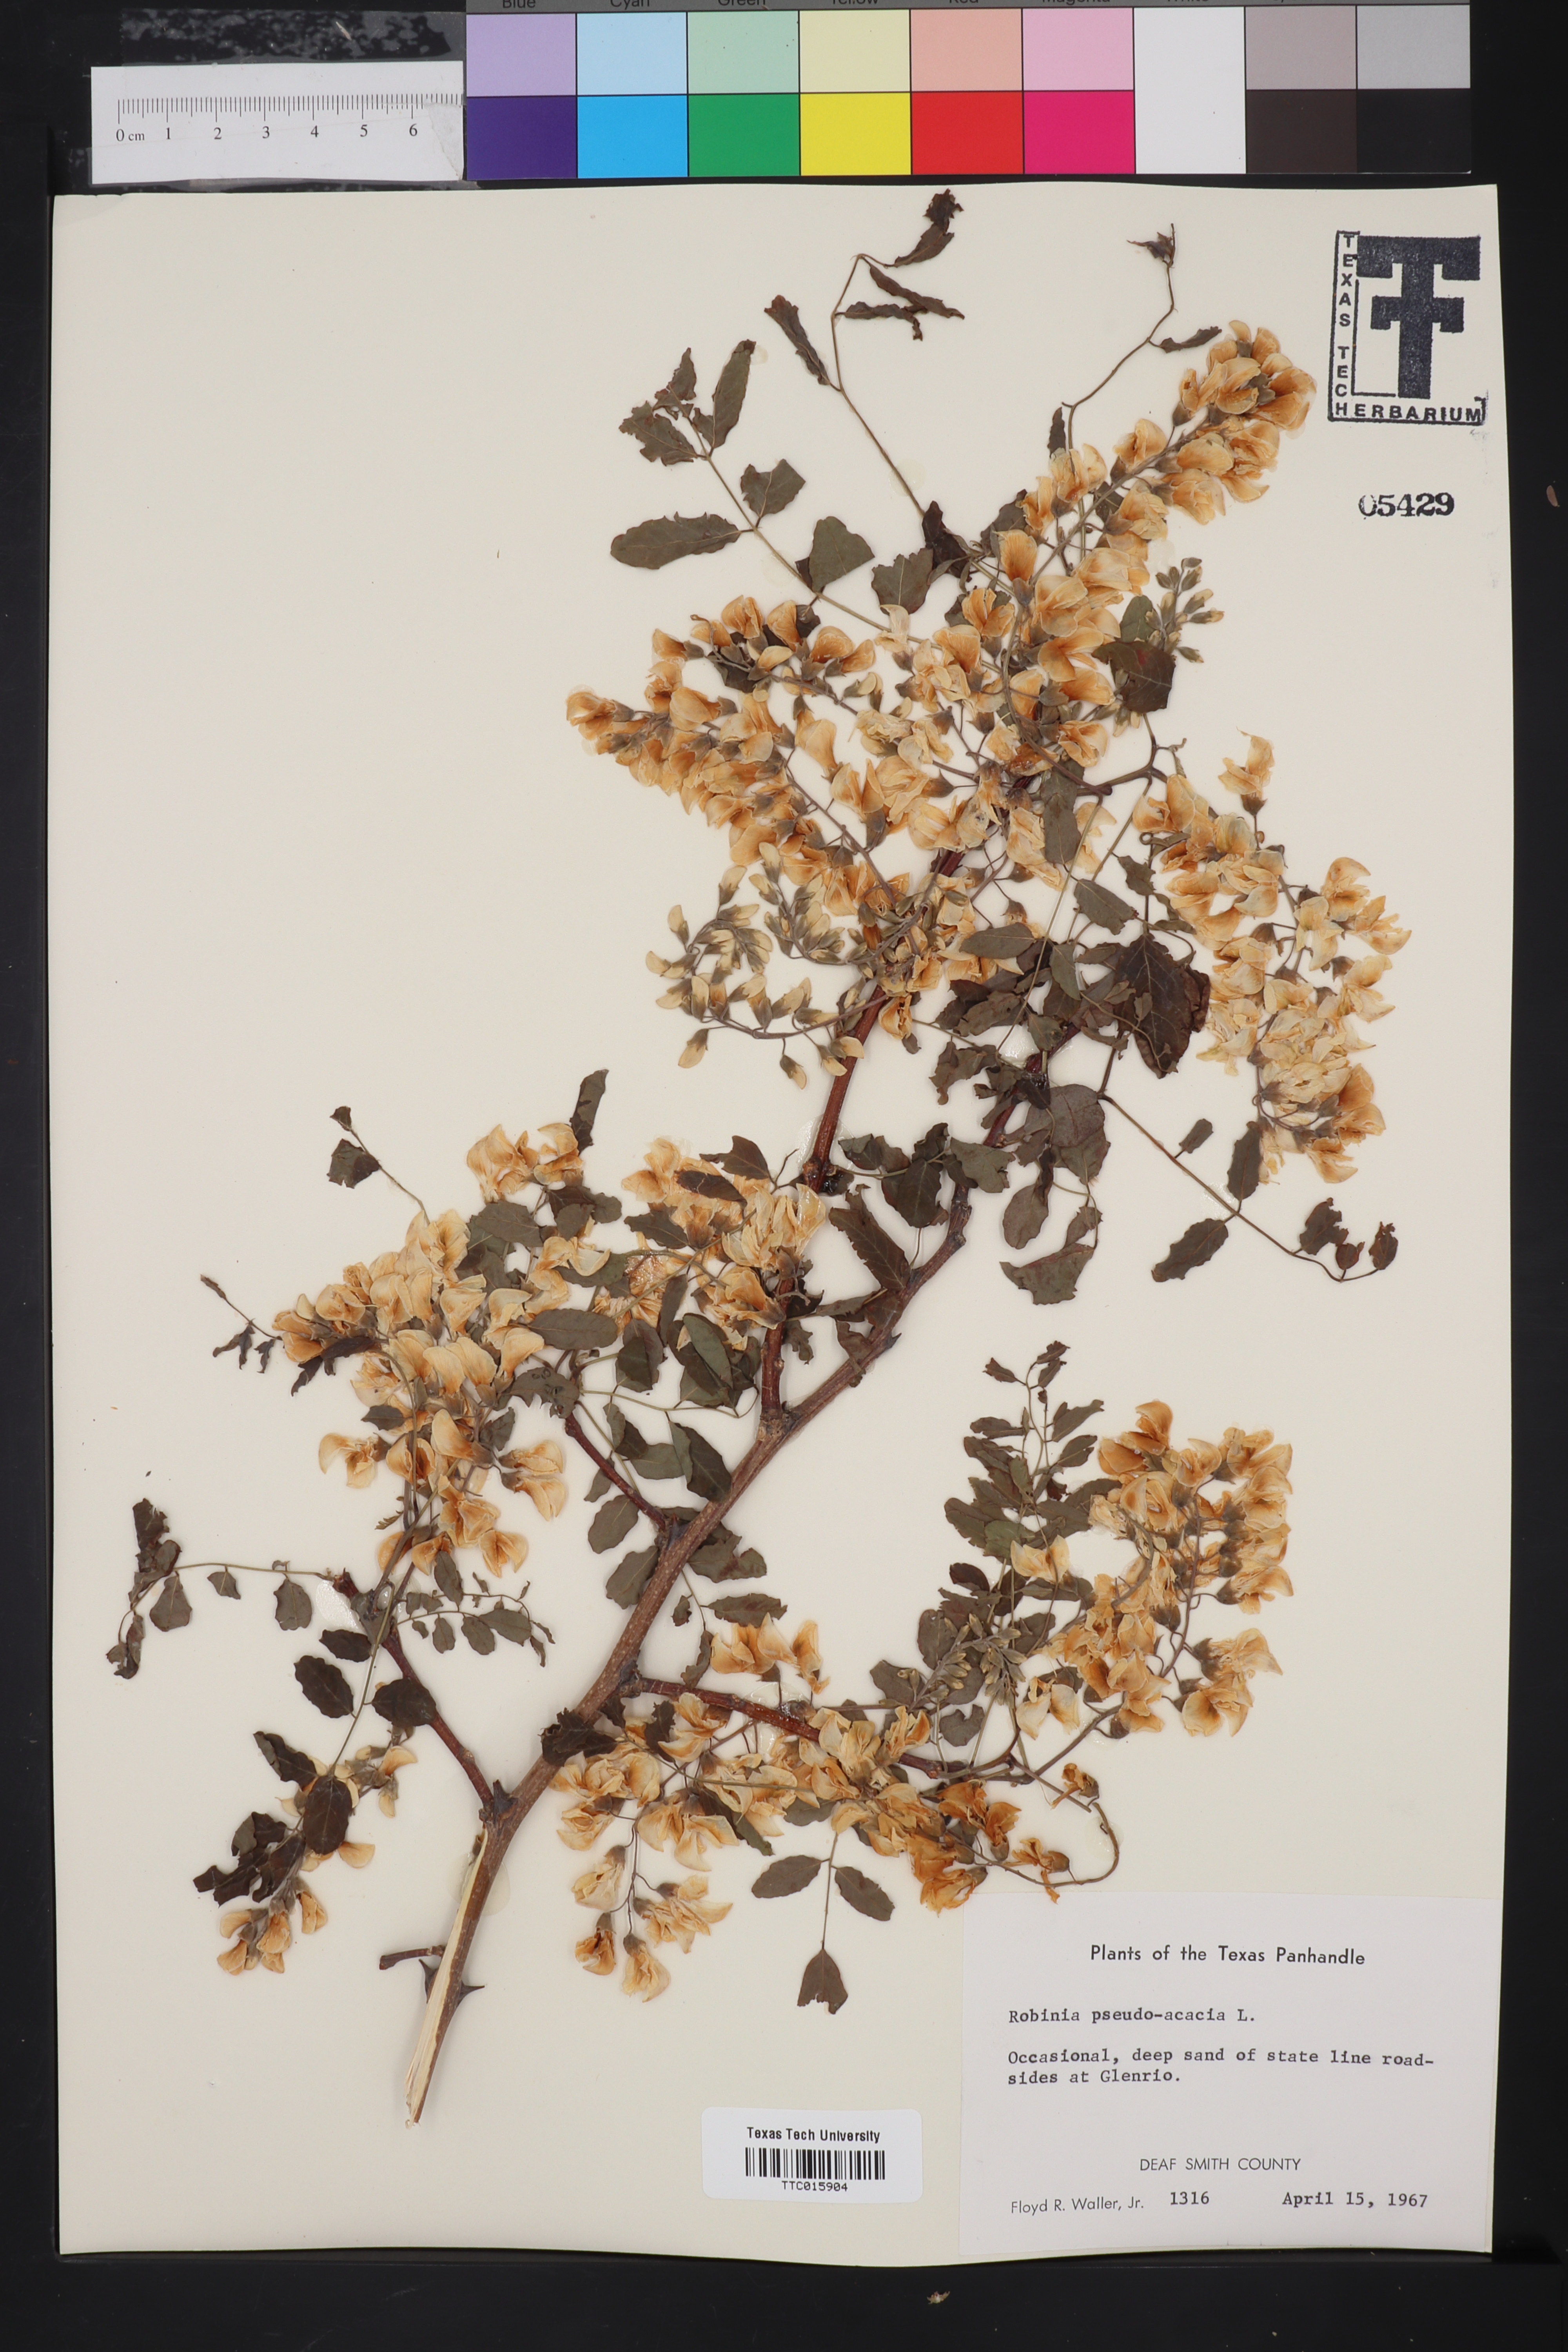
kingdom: Plantae
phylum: Tracheophyta
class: Magnoliopsida
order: Fabales
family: Fabaceae
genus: Robinia
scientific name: Robinia pseudoacacia
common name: Black locust
